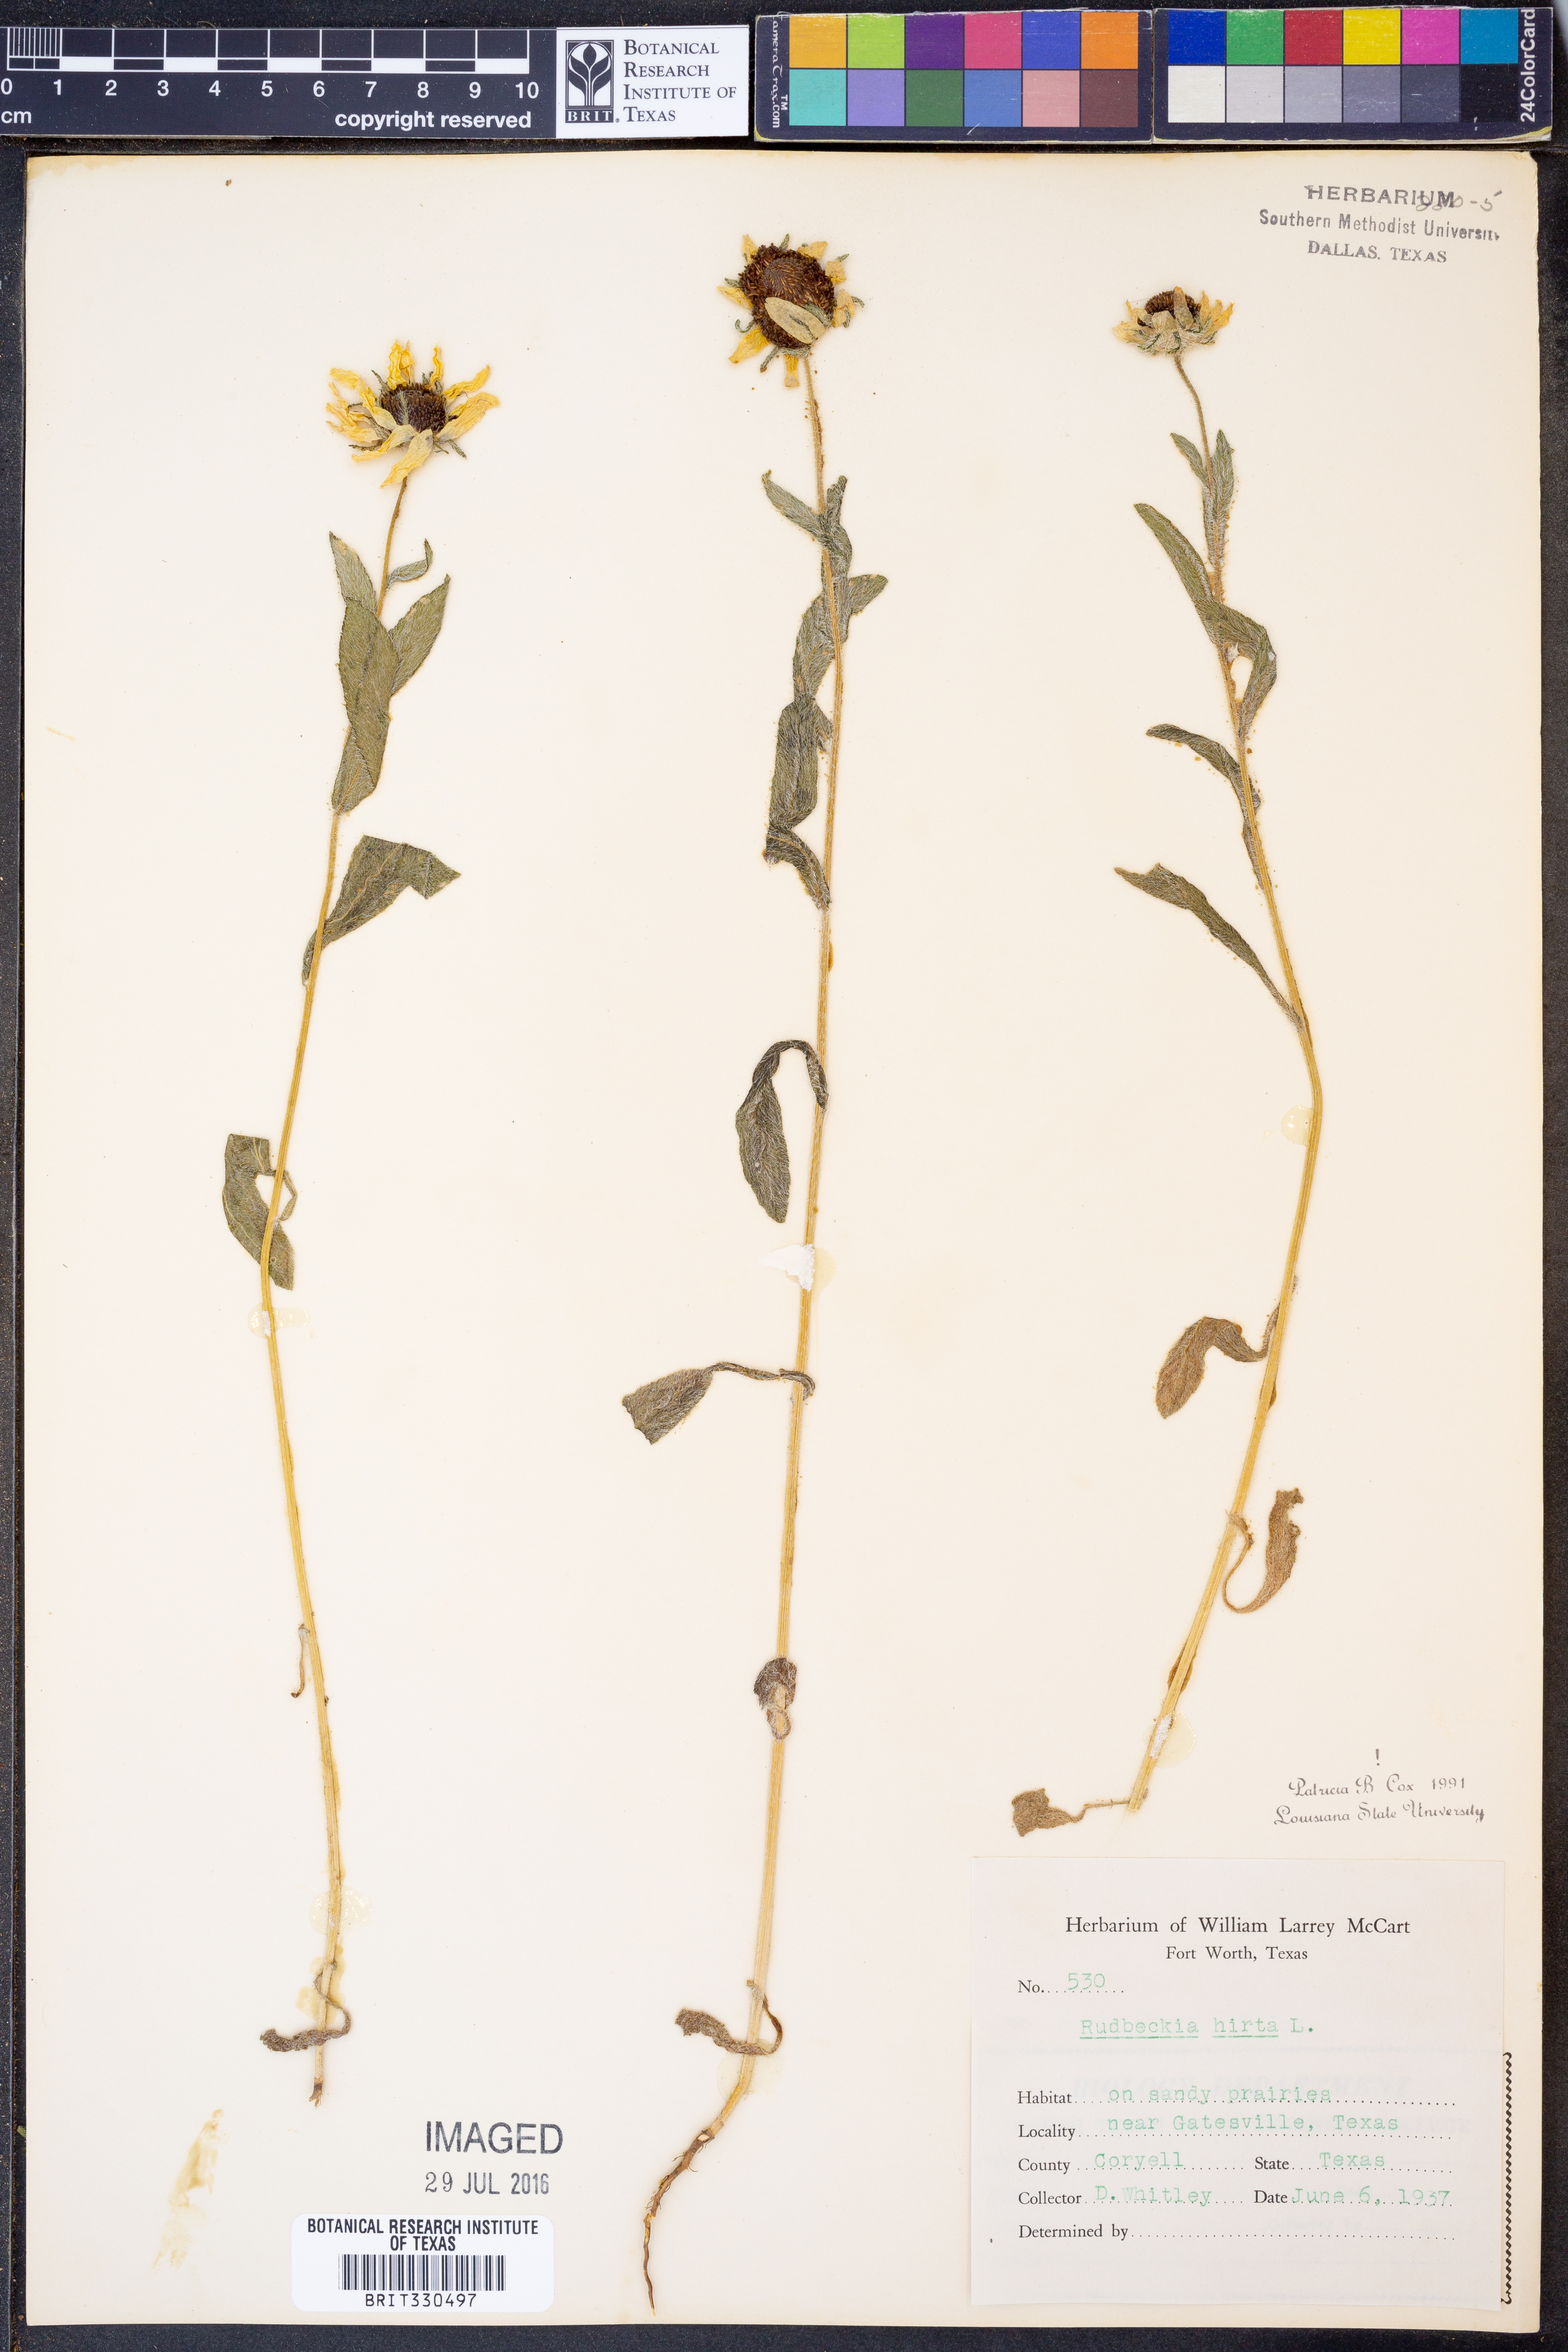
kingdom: Plantae
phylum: Tracheophyta
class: Magnoliopsida
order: Asterales
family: Asteraceae
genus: Rudbeckia
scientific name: Rudbeckia hirta
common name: Black-eyed-susan
